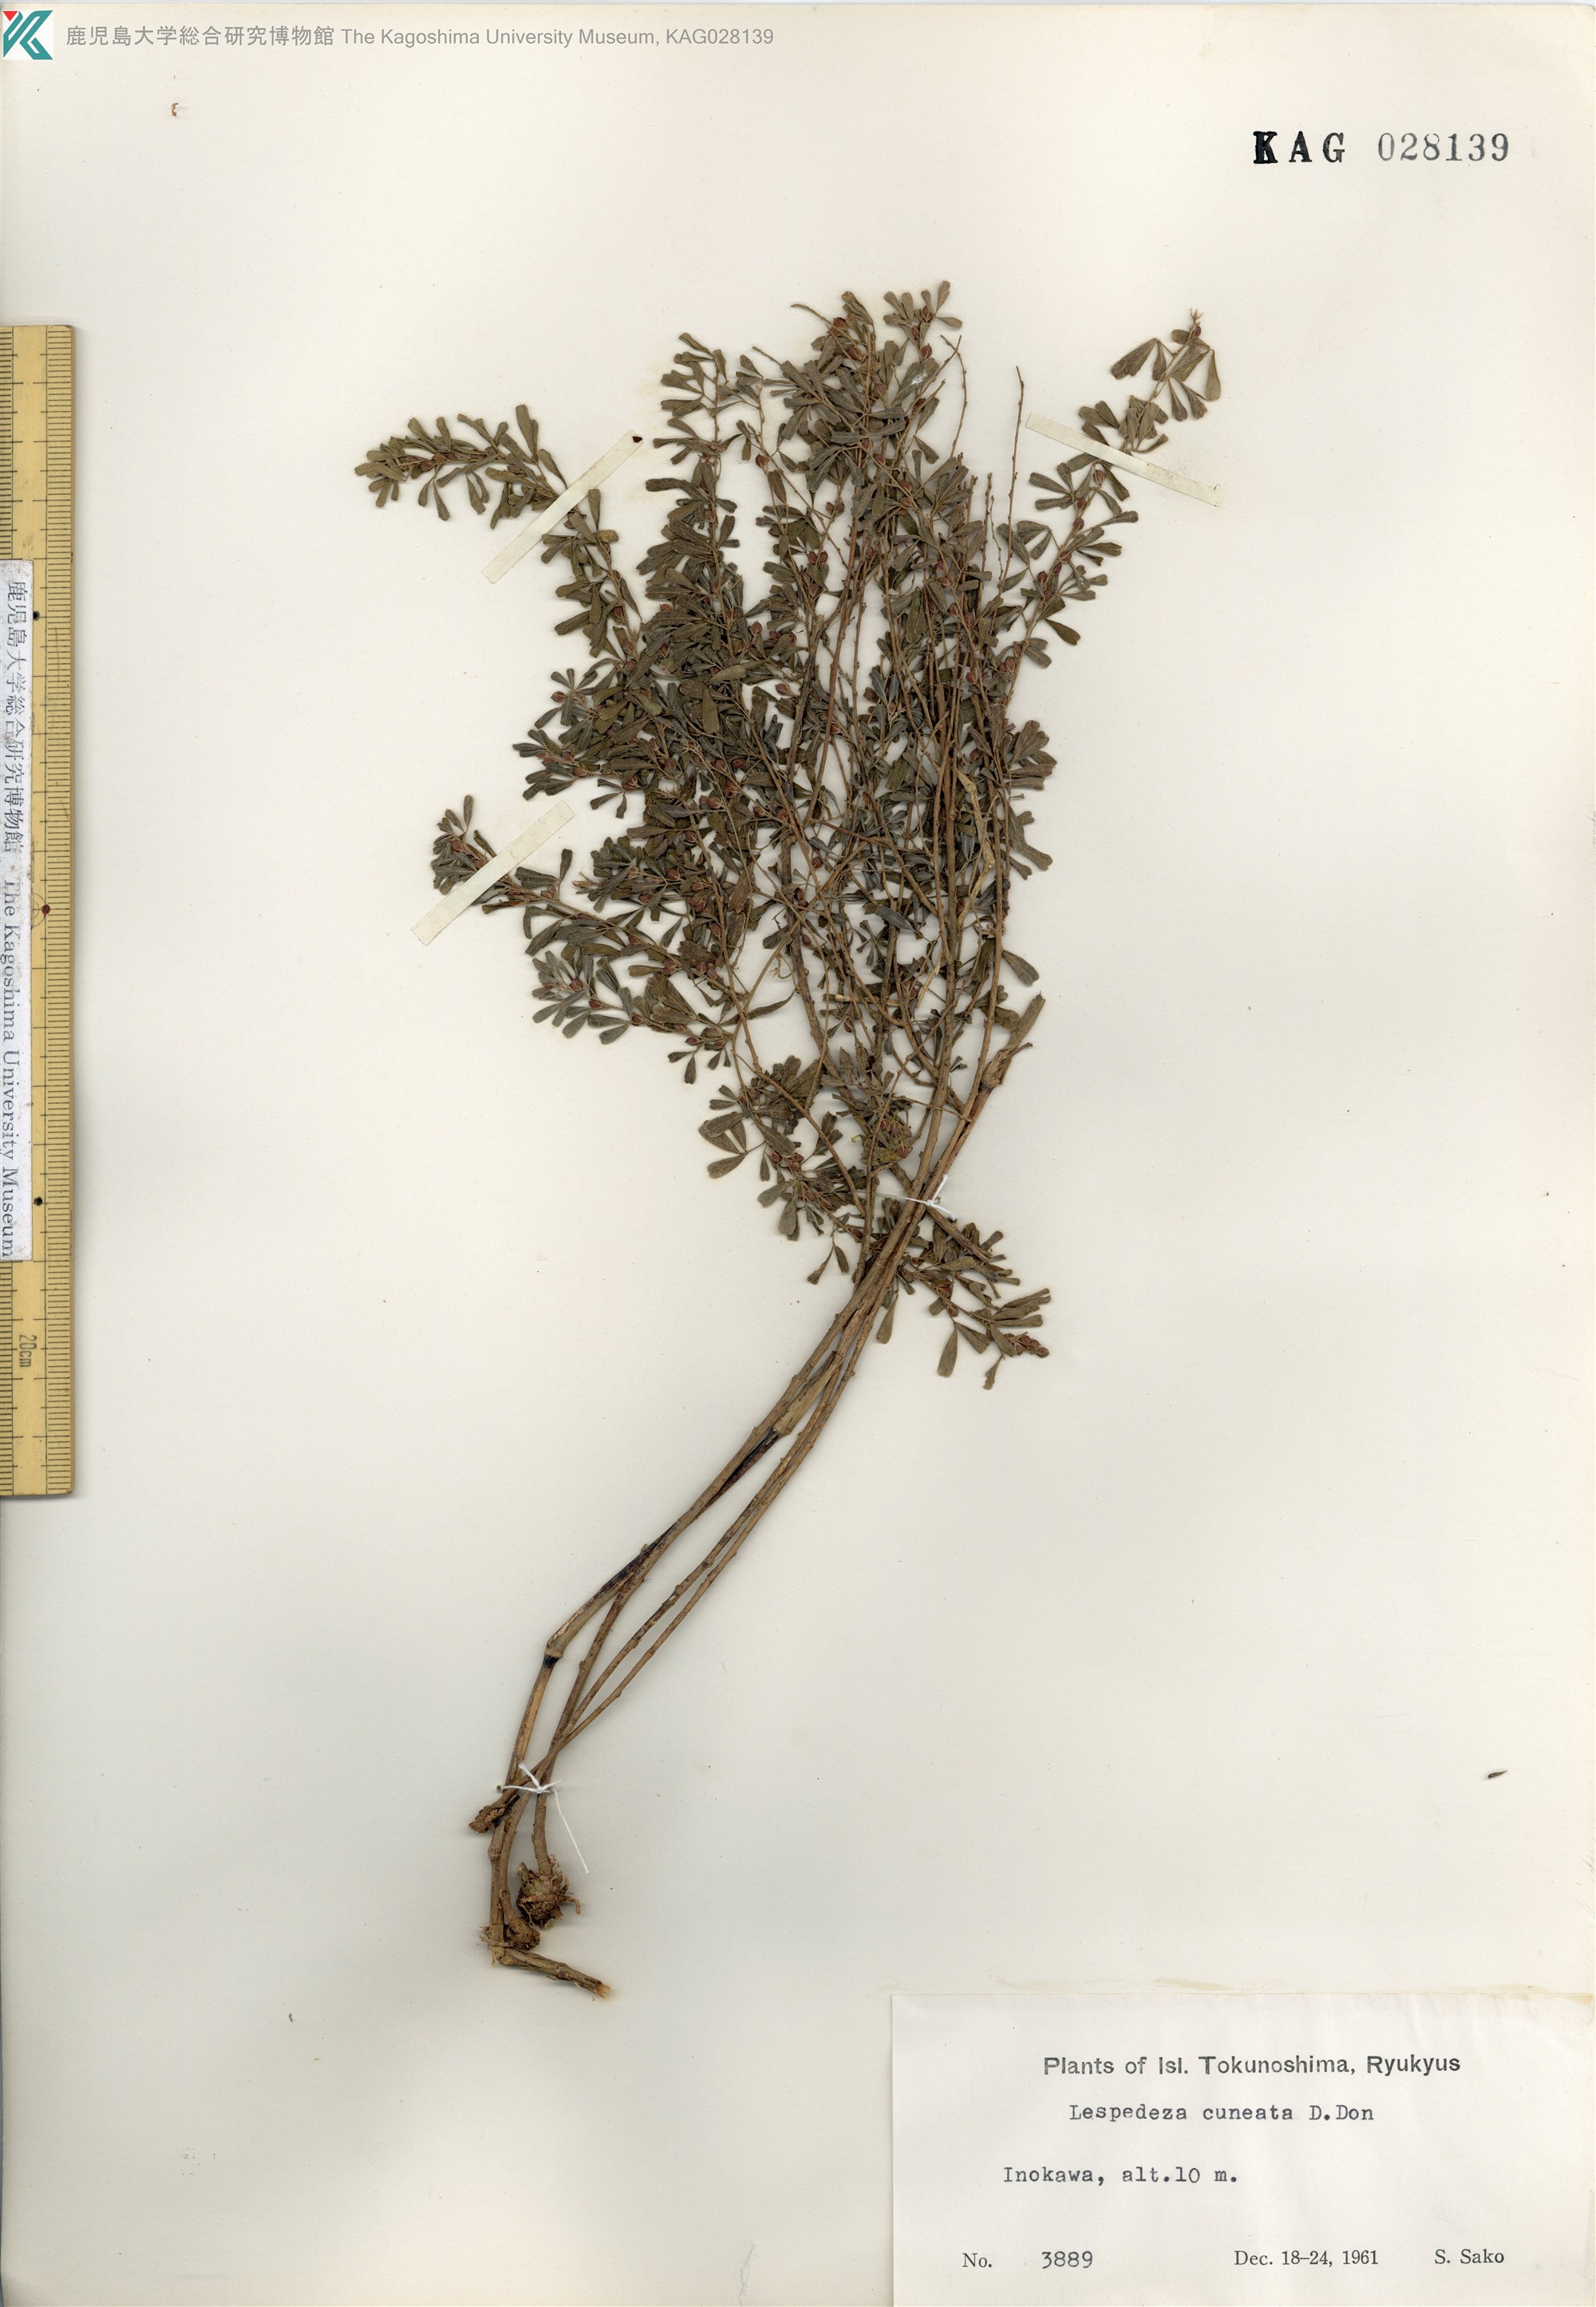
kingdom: Plantae
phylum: Tracheophyta
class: Magnoliopsida
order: Fabales
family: Fabaceae
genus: Lespedeza
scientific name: Lespedeza cuneata
